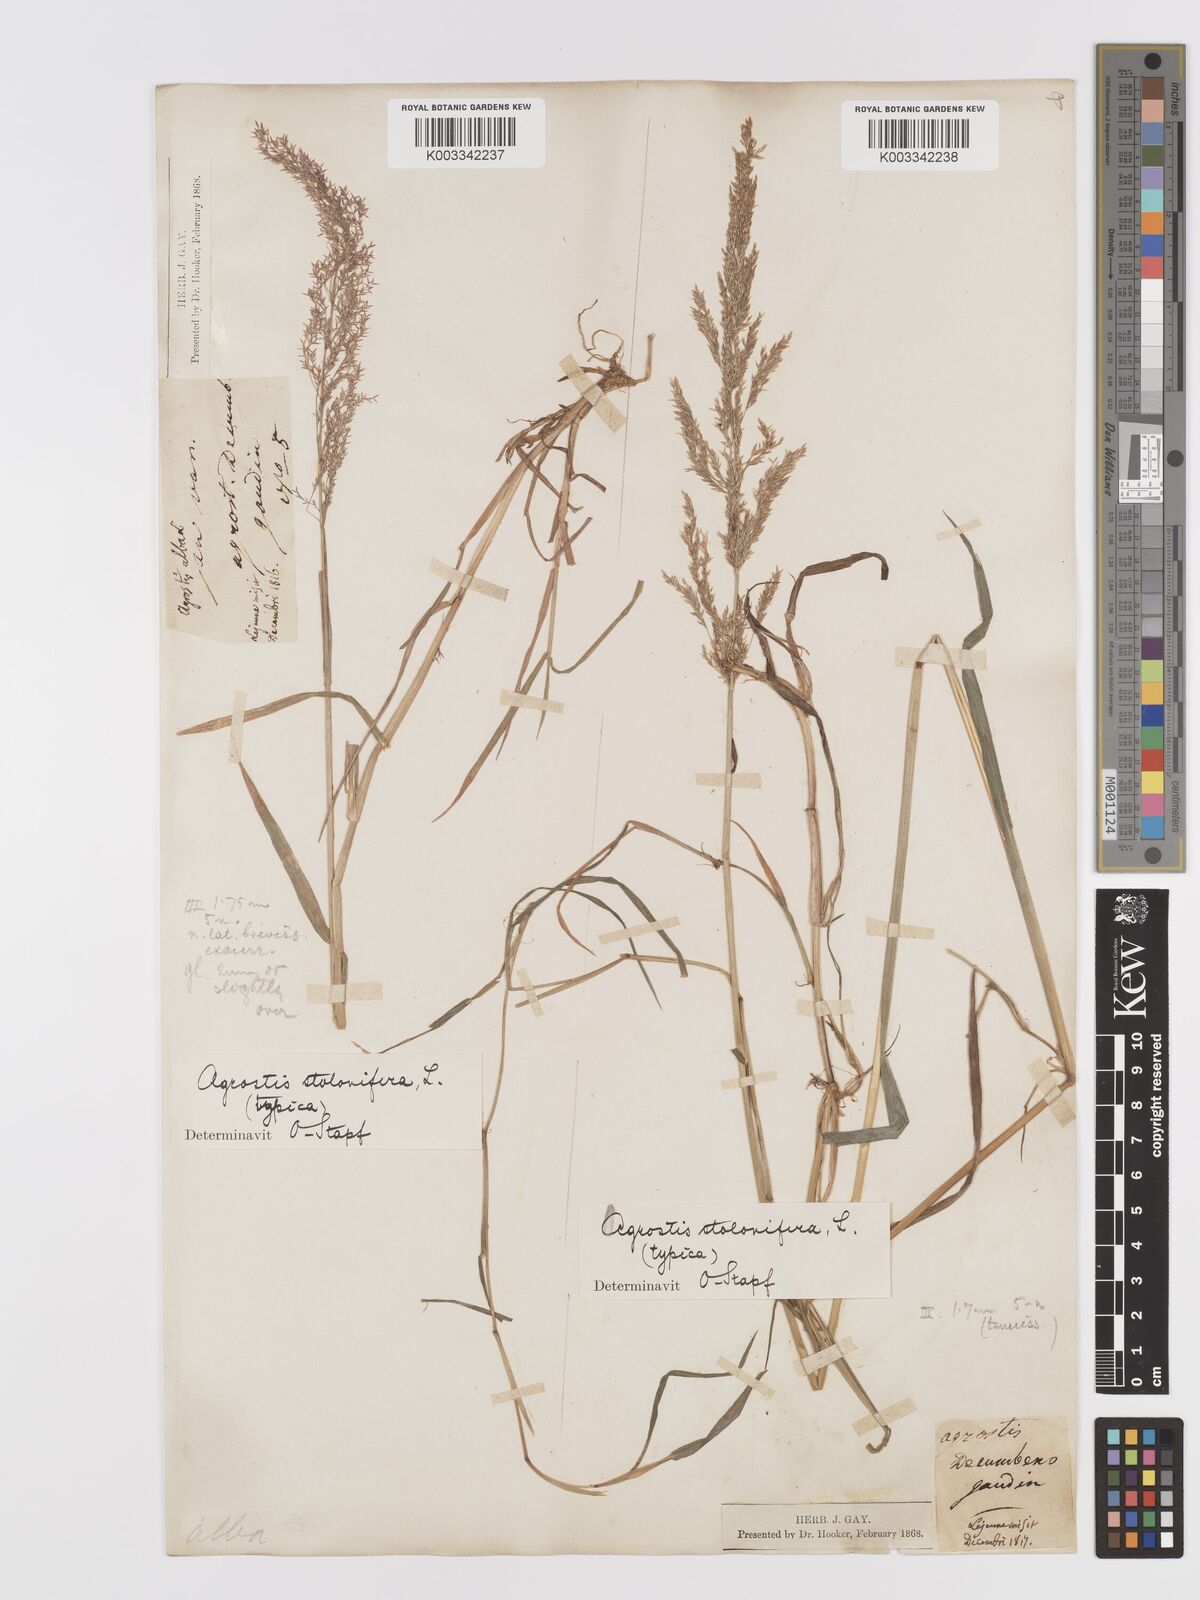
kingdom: Plantae
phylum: Tracheophyta
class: Liliopsida
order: Poales
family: Poaceae
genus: Agrostis
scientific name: Agrostis stolonifera
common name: Creeping bentgrass
